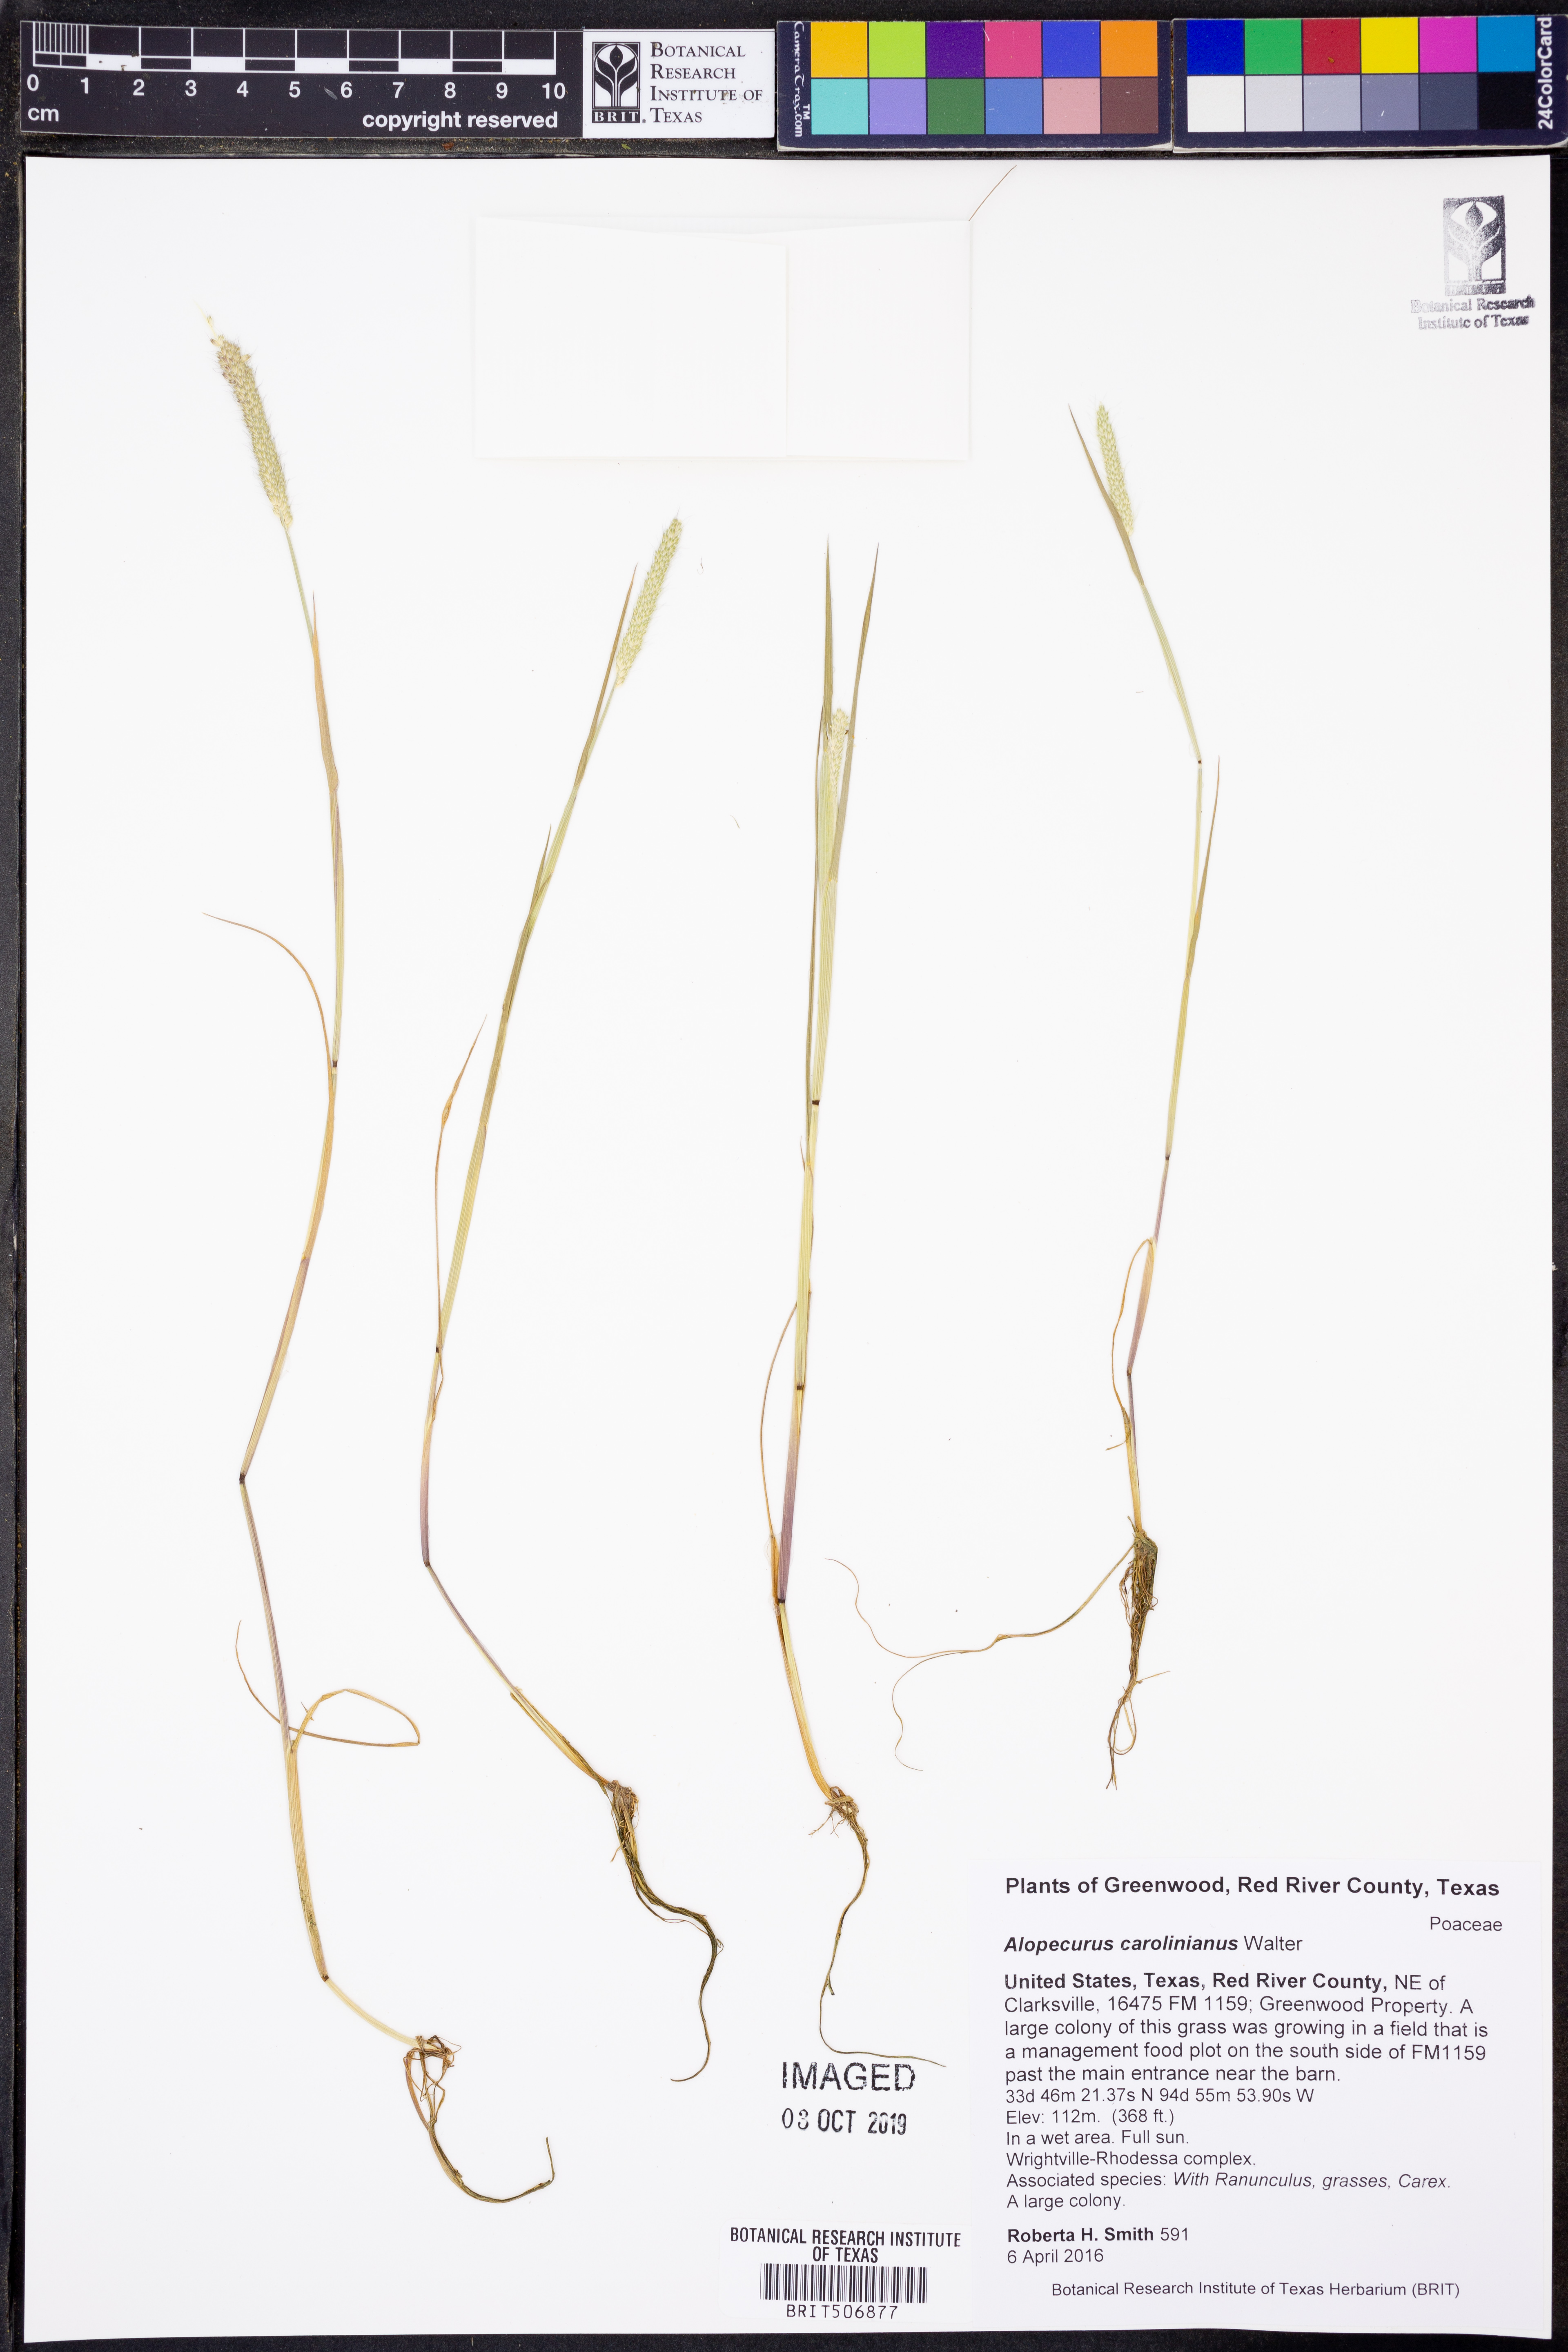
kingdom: Plantae
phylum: Tracheophyta
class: Liliopsida
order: Poales
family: Poaceae
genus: Alopecurus
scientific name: Alopecurus carolinianus
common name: Tufted foxtail
